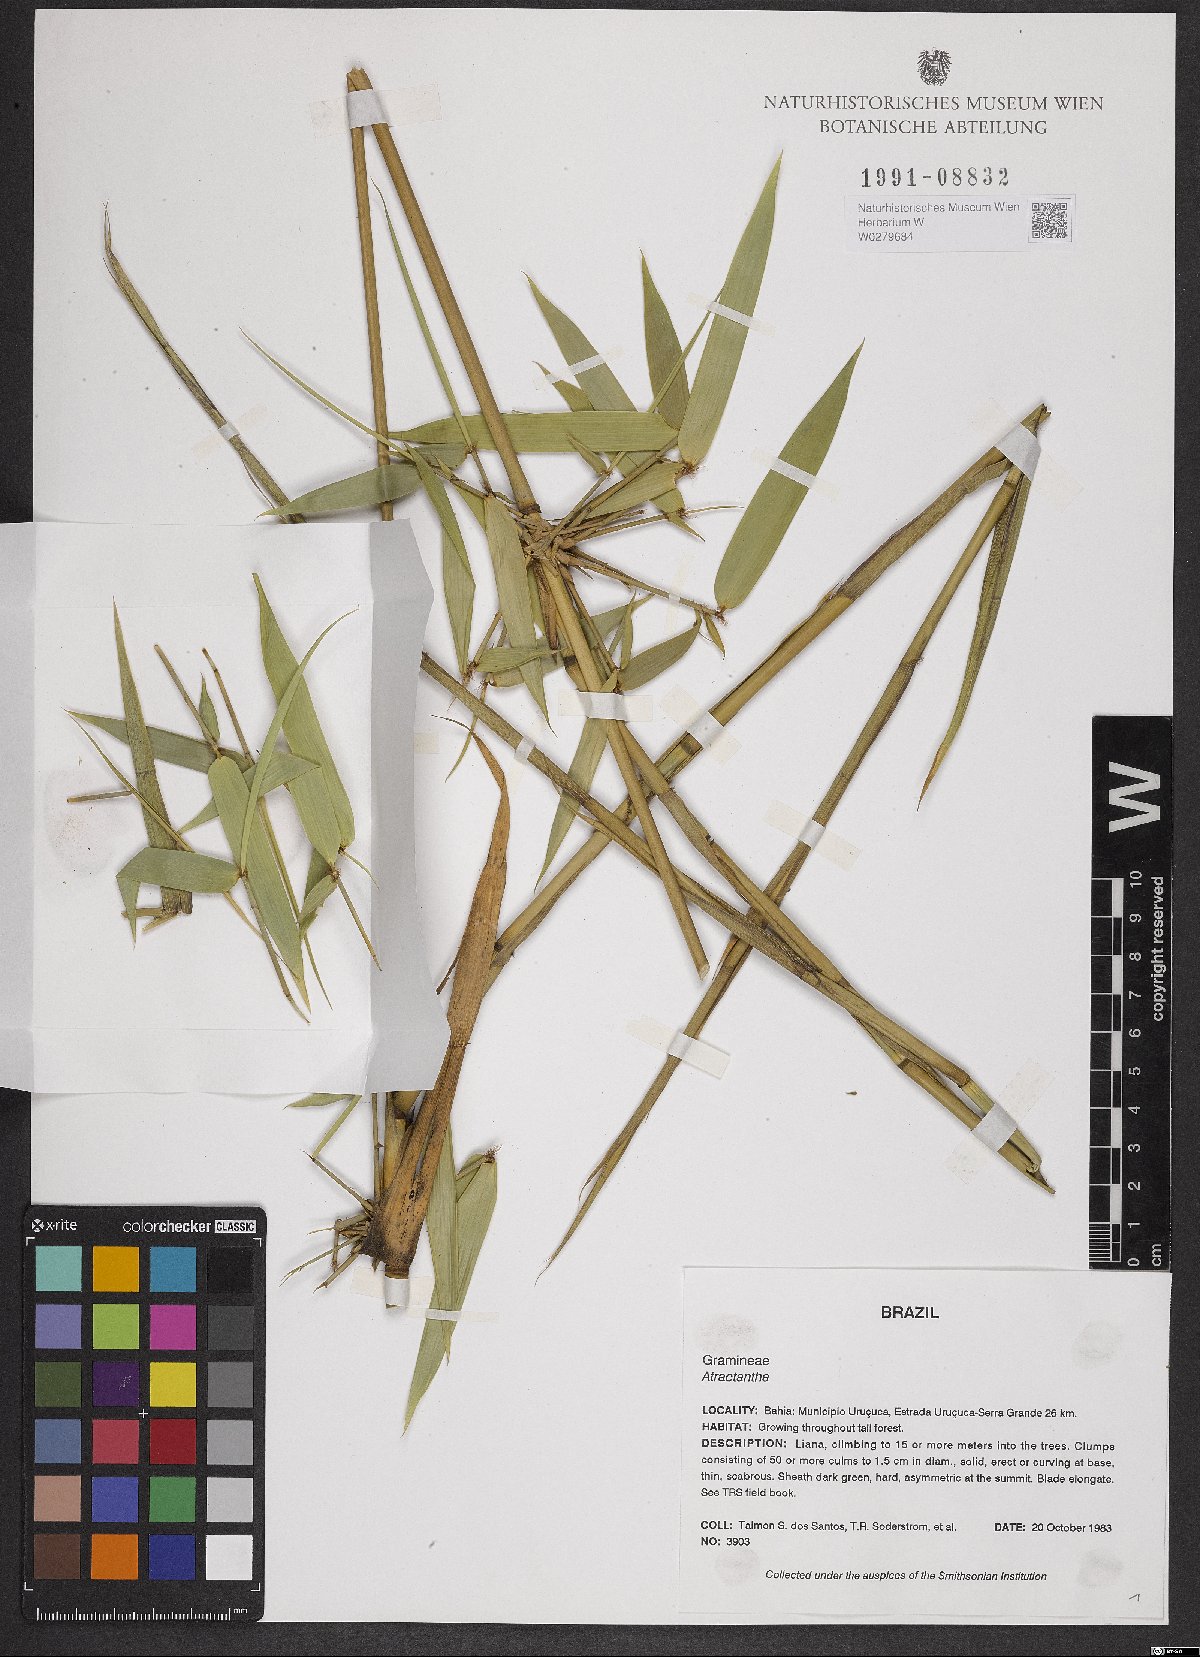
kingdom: Plantae
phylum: Tracheophyta
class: Liliopsida
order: Poales
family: Poaceae
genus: Atractantha
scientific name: Atractantha
